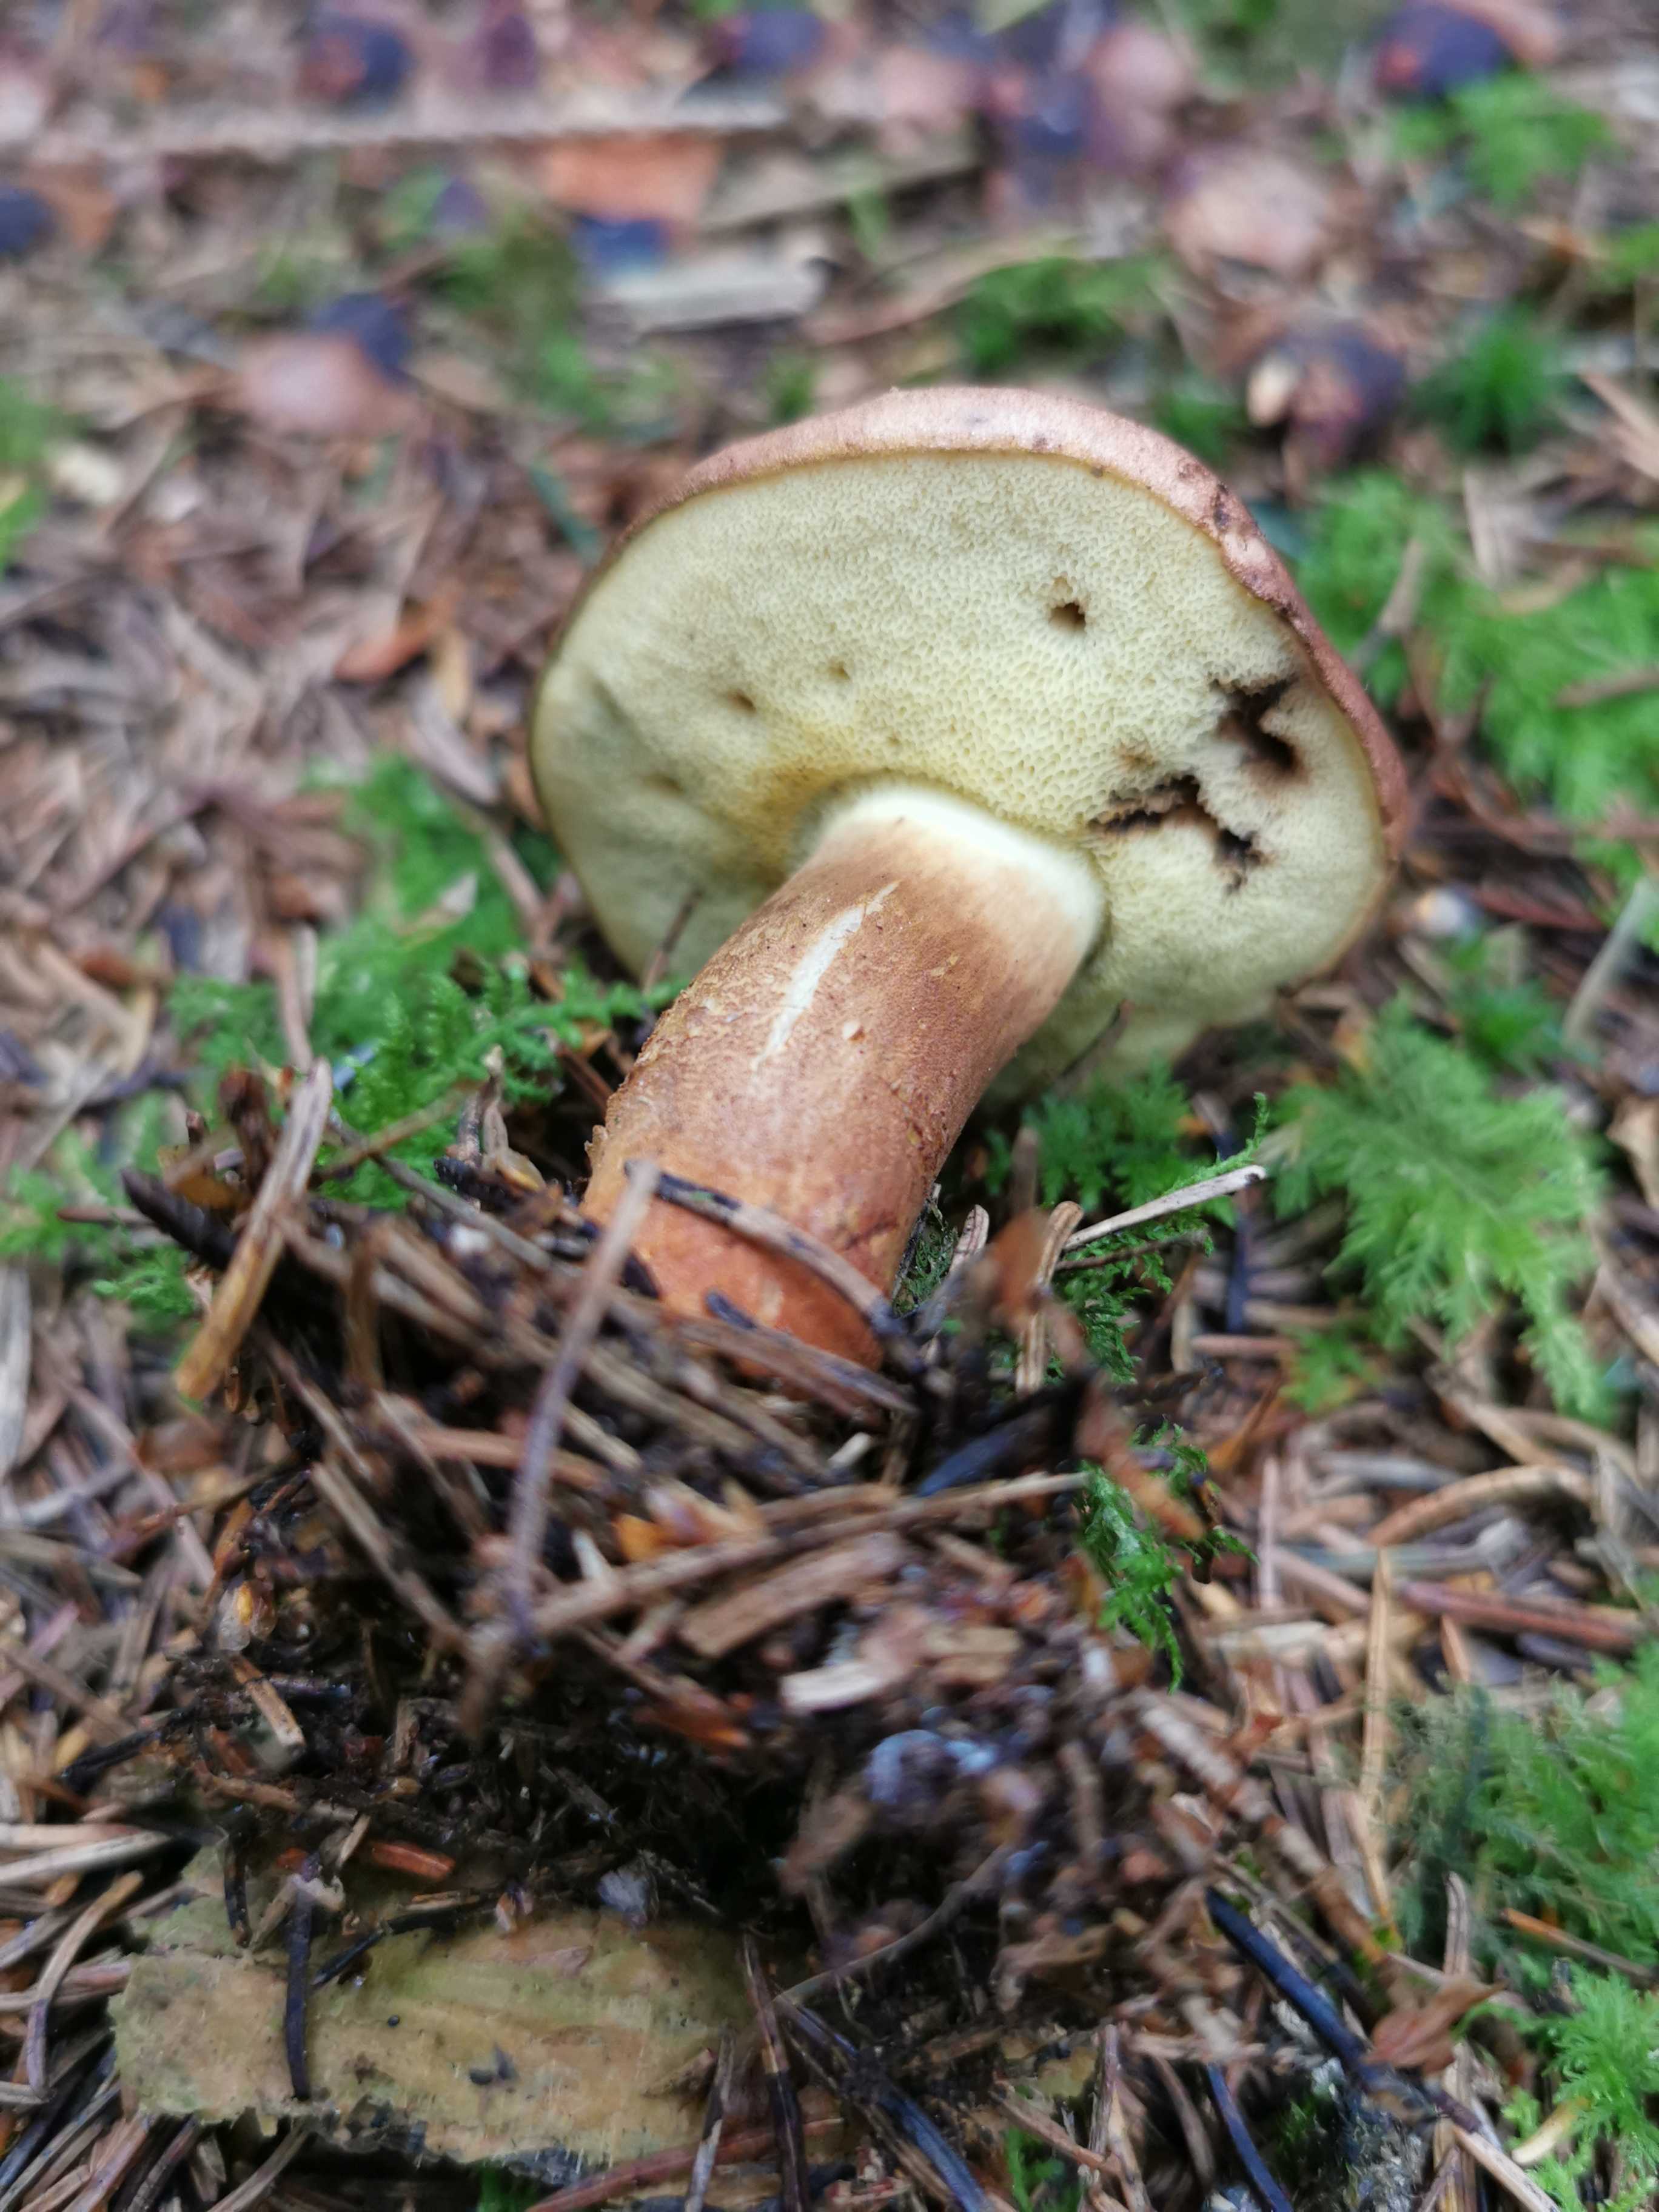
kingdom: Fungi
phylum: Basidiomycota
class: Agaricomycetes
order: Boletales
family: Boletaceae
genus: Imleria
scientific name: Imleria badia
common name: brunstokket rørhat
